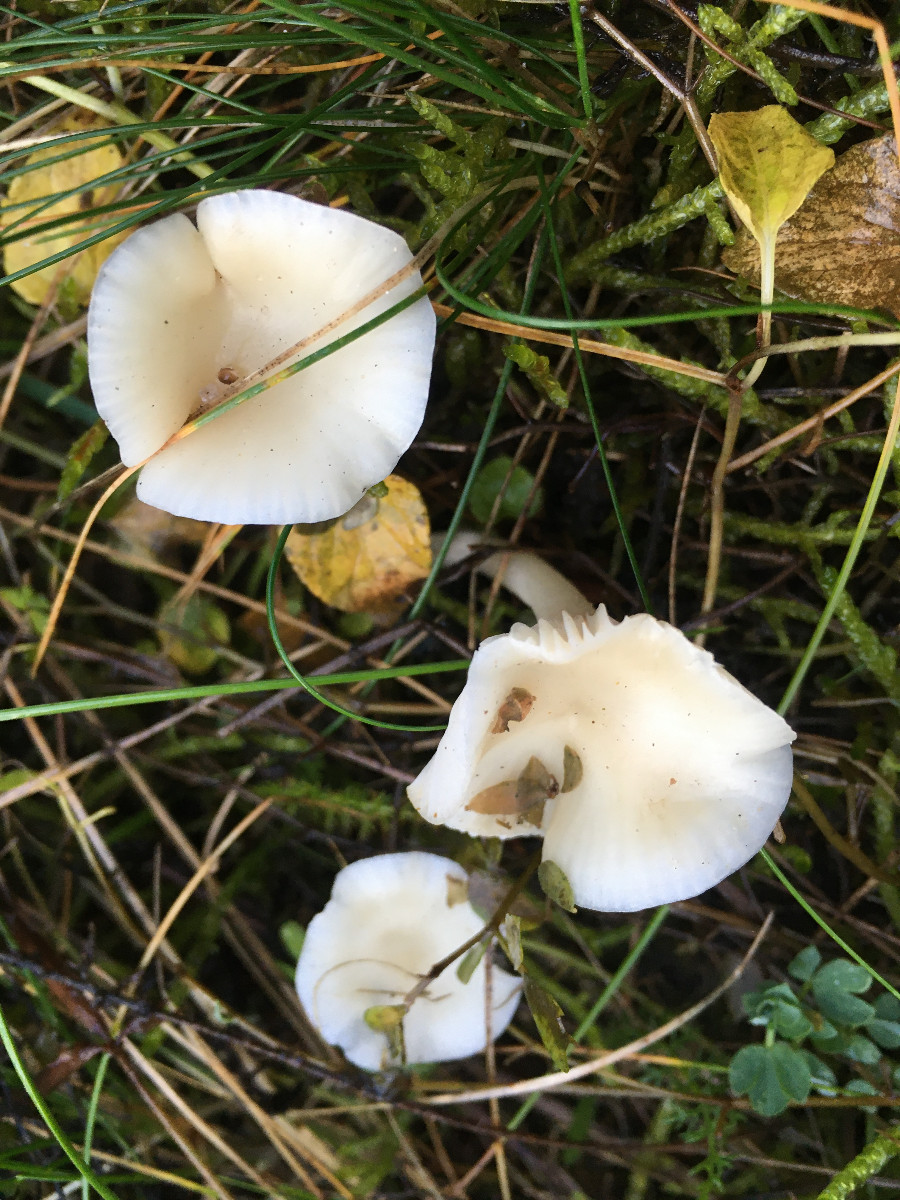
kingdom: Fungi
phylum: Basidiomycota
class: Agaricomycetes
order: Agaricales
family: Hygrophoraceae
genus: Cuphophyllus
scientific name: Cuphophyllus virgineus
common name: snehvid vokshat
